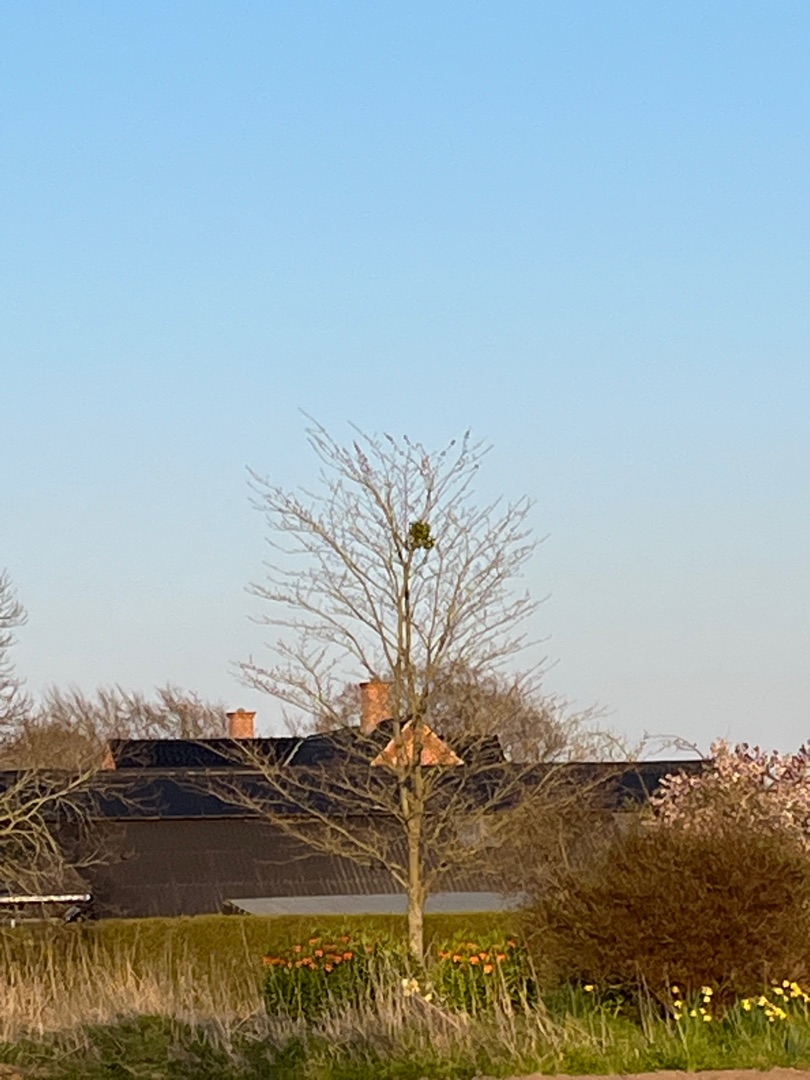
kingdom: Plantae
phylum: Tracheophyta
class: Magnoliopsida
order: Santalales
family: Viscaceae
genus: Viscum
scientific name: Viscum album
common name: Mistelten
